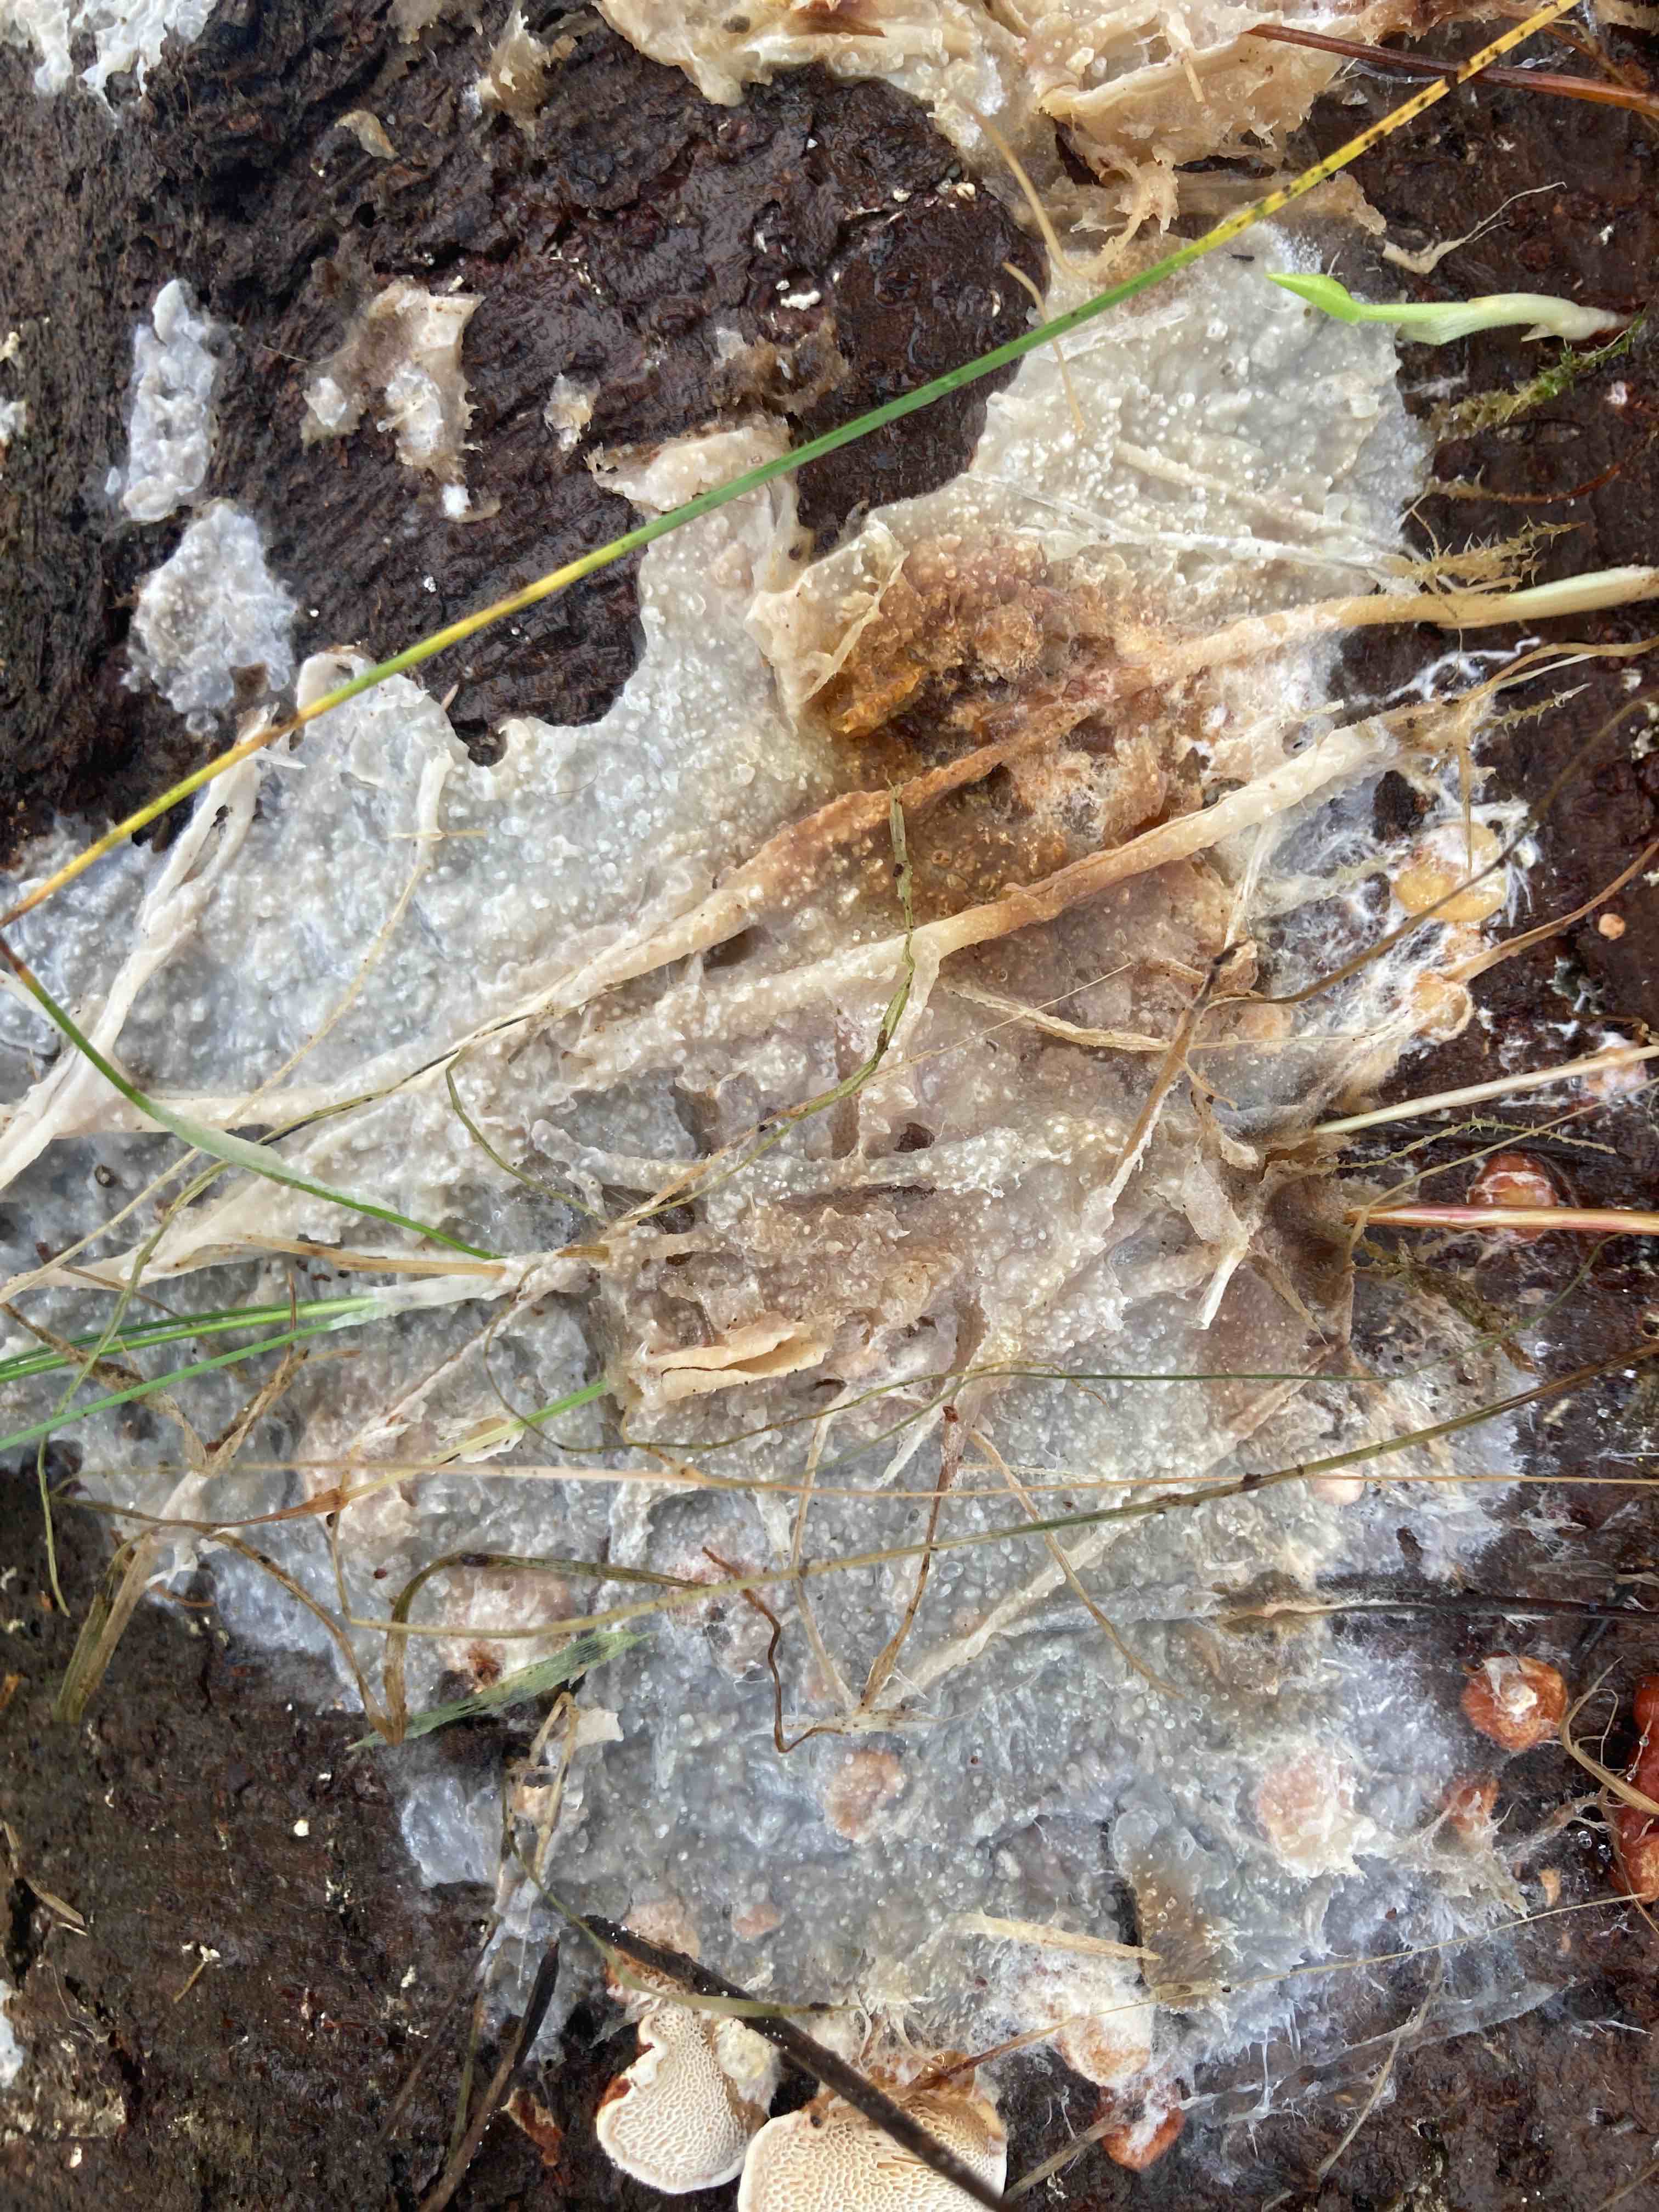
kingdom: Fungi
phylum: Basidiomycota
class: Agaricomycetes
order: Polyporales
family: Phanerochaetaceae
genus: Phlebiopsis
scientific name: Phlebiopsis gigantea
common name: kæmpebarksvamp
